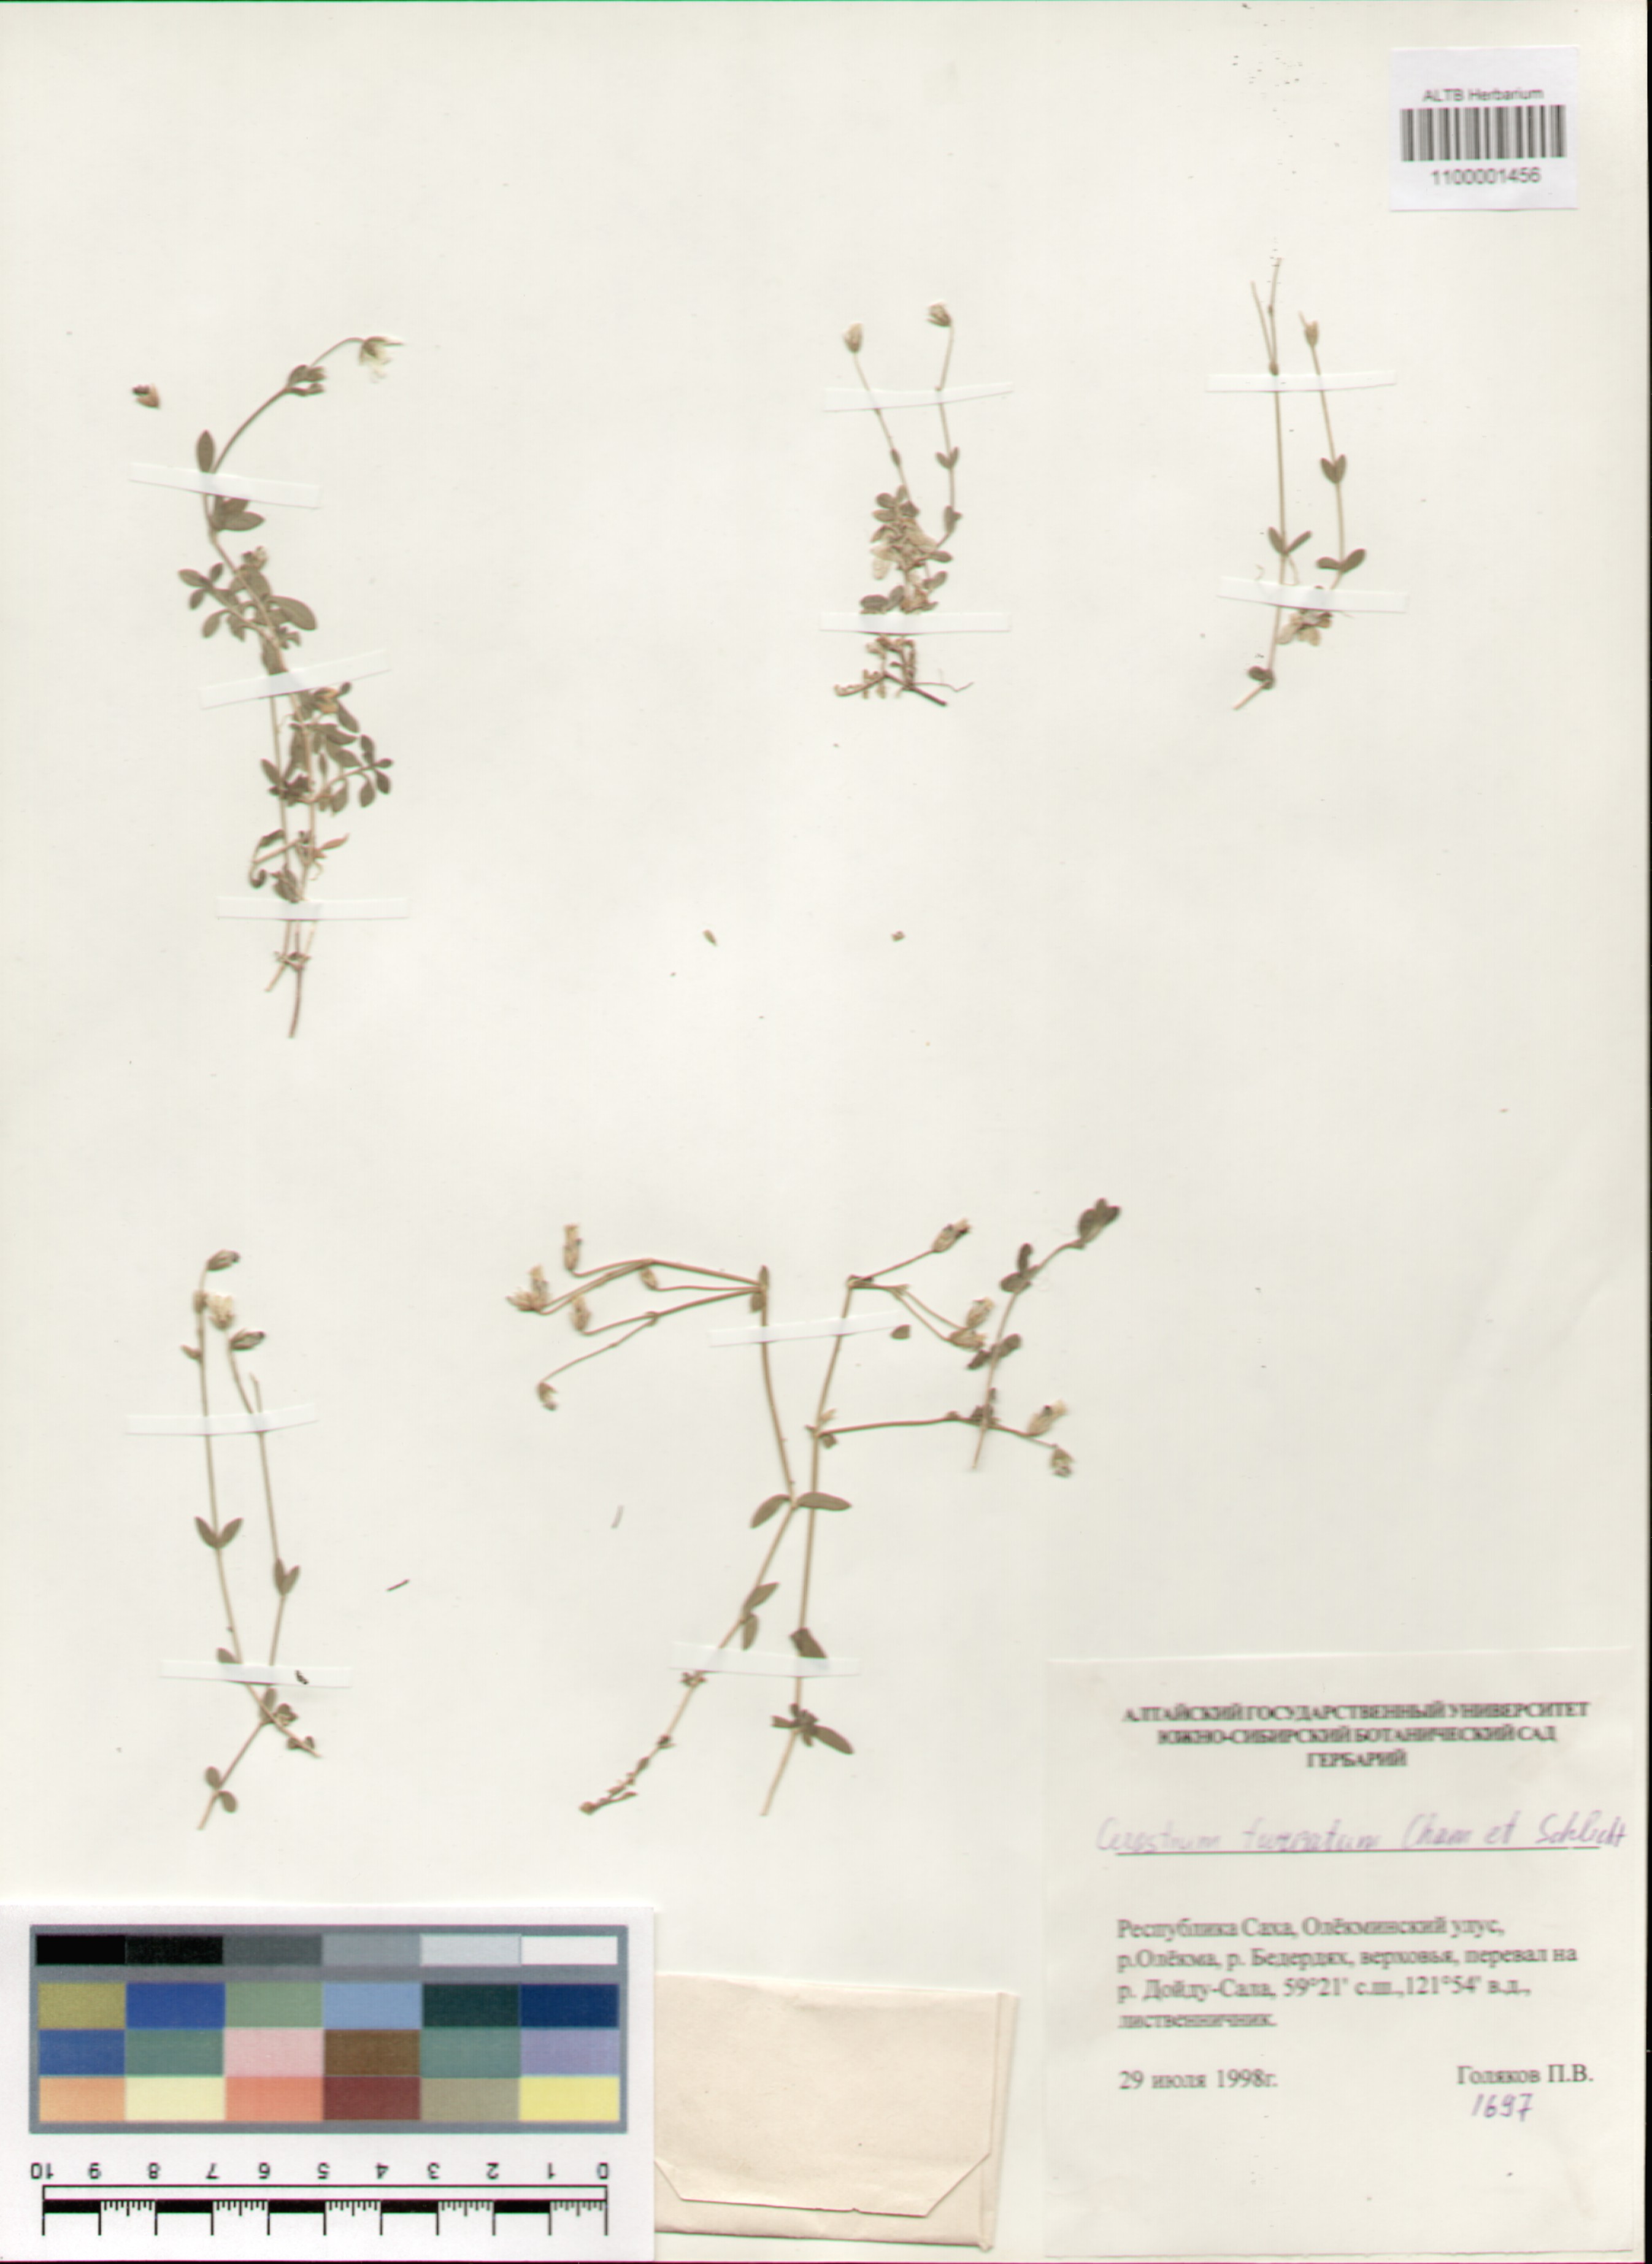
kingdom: Plantae
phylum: Tracheophyta
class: Magnoliopsida
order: Caryophyllales
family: Caryophyllaceae
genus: Cerastium
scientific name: Cerastium furcatum
